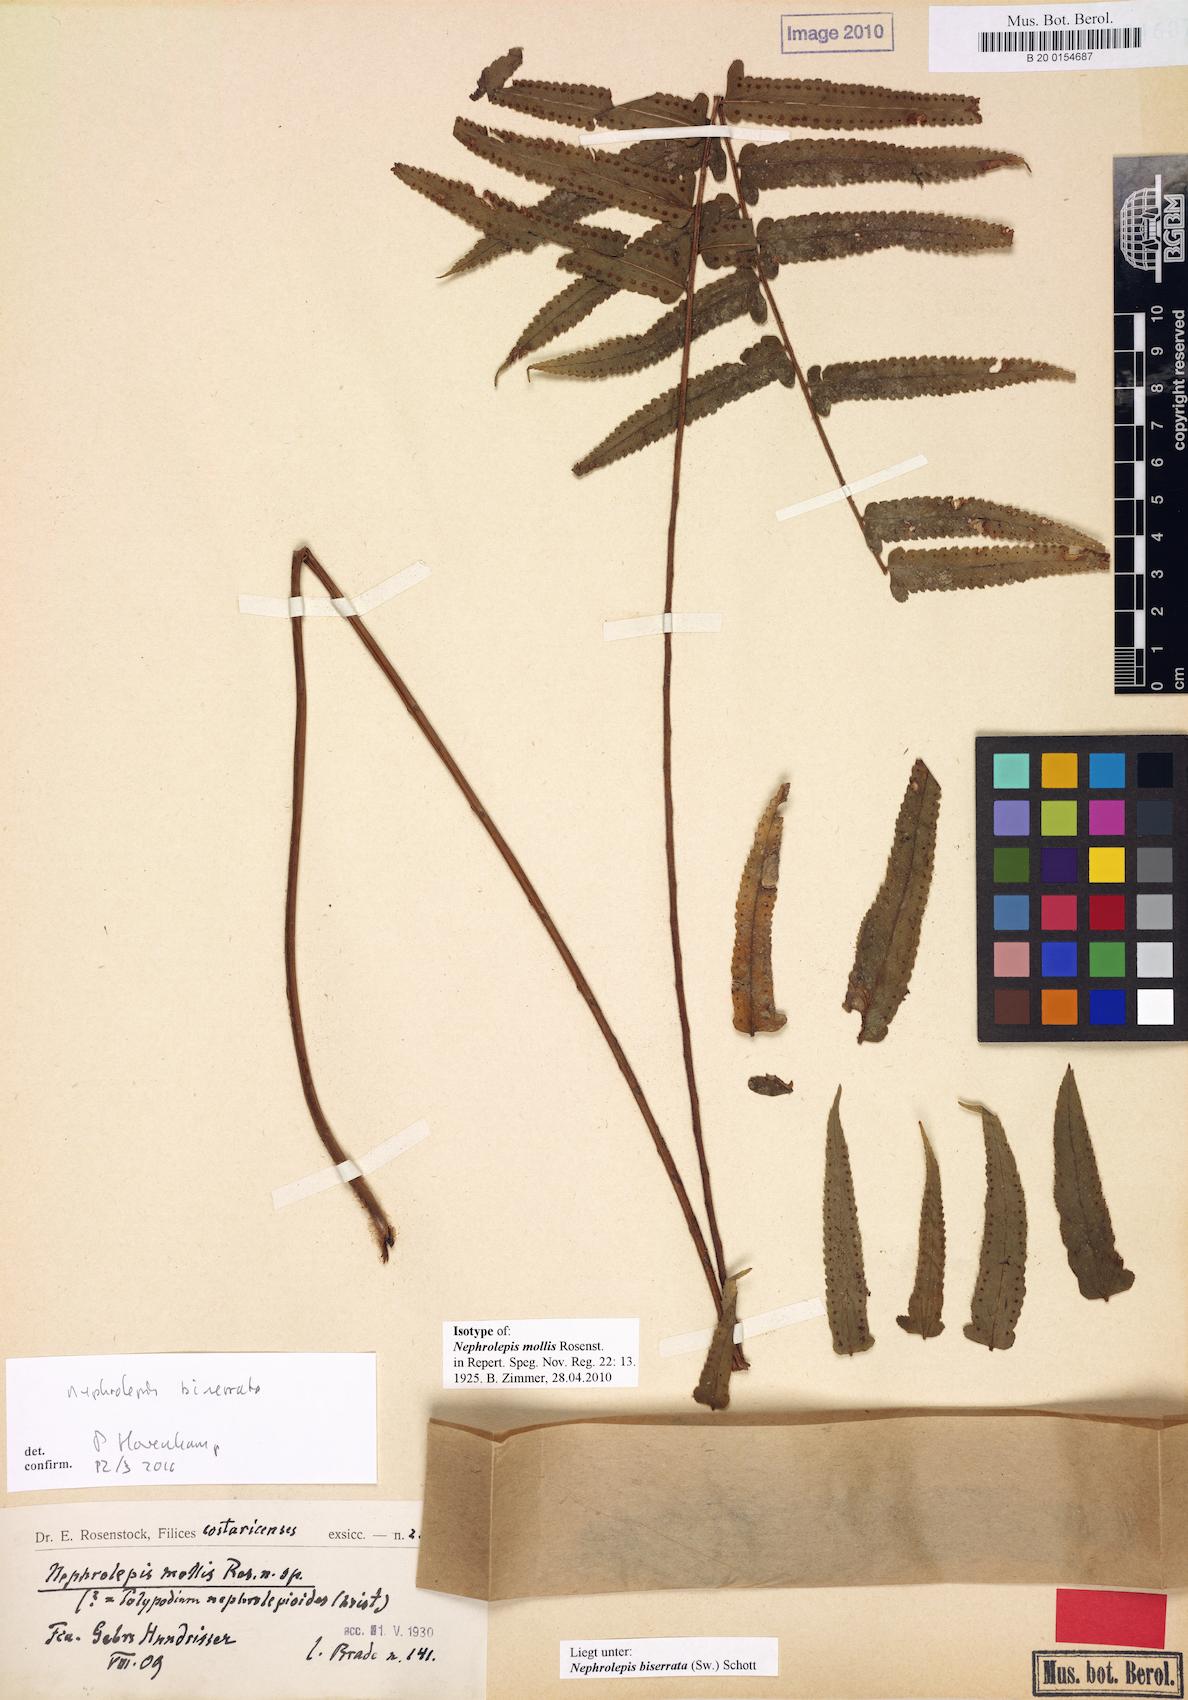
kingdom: Plantae
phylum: Tracheophyta
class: Polypodiopsida
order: Polypodiales
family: Nephrolepidaceae
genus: Nephrolepis
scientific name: Nephrolepis biserrata
